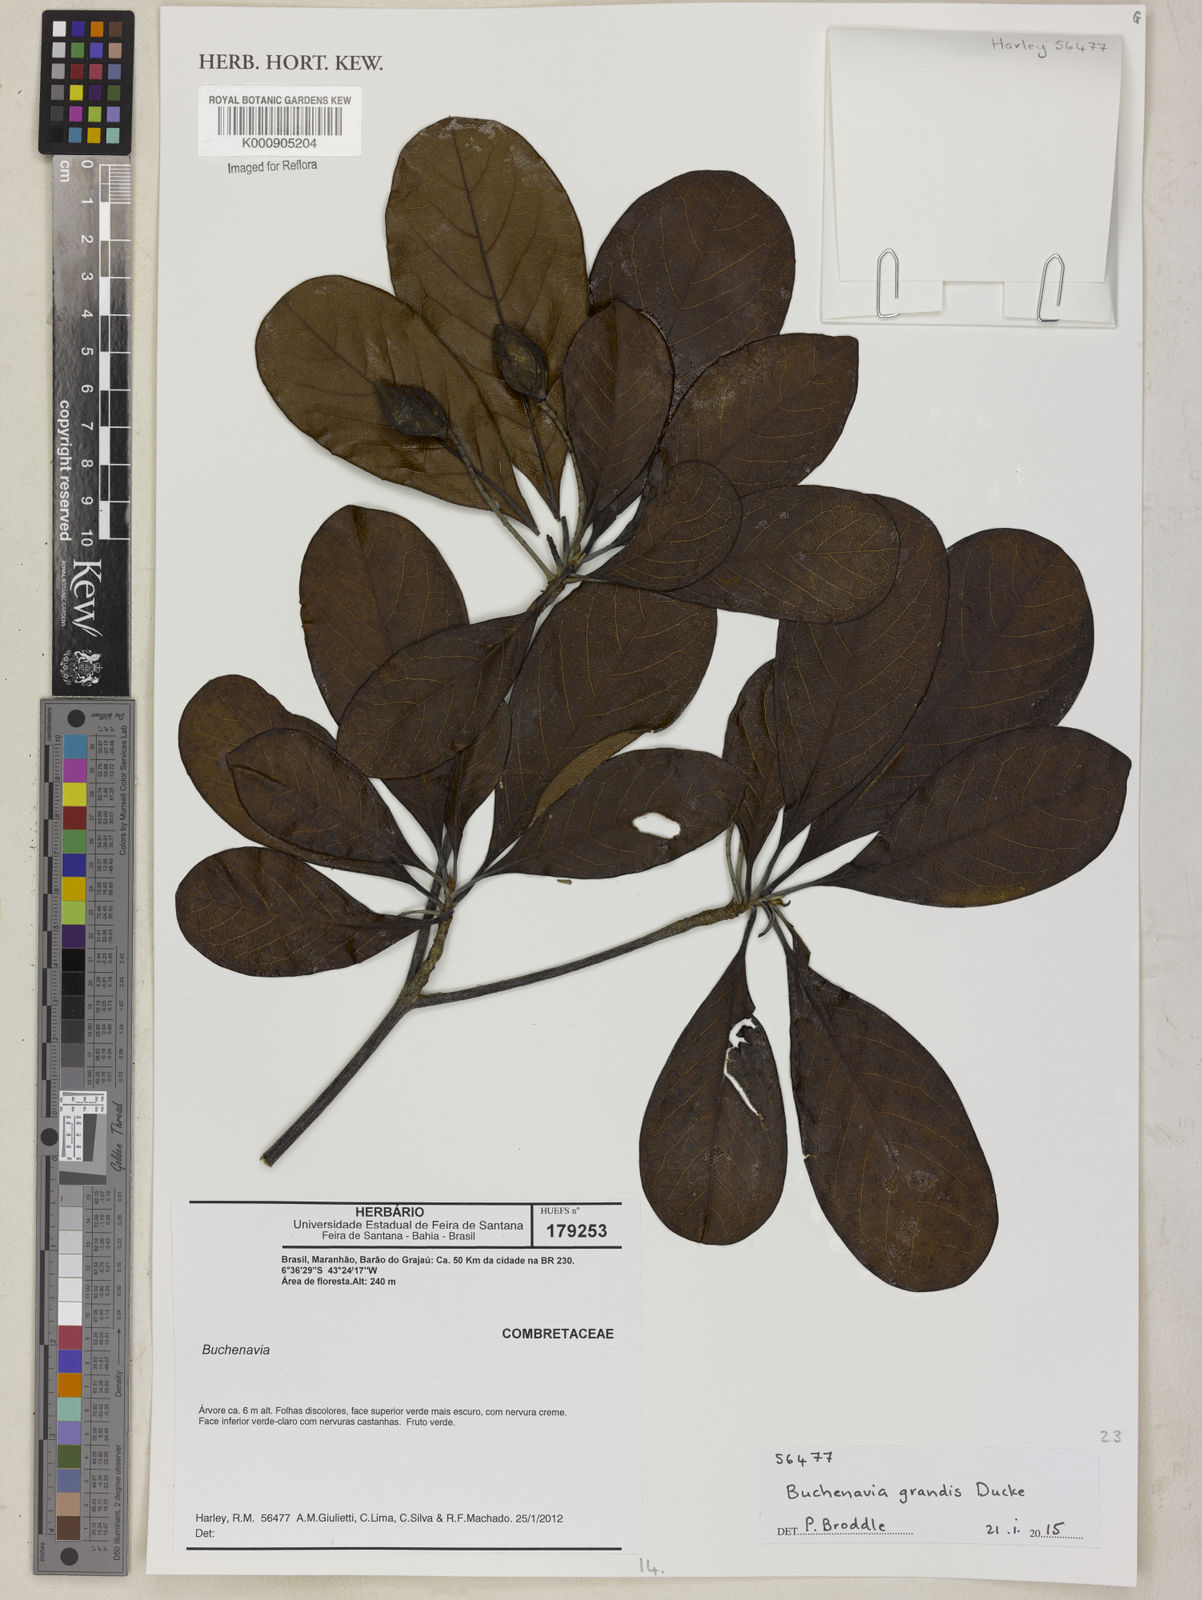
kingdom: Plantae
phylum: Tracheophyta
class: Magnoliopsida
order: Myrtales
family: Combretaceae
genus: Terminalia
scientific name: Terminalia grandis
